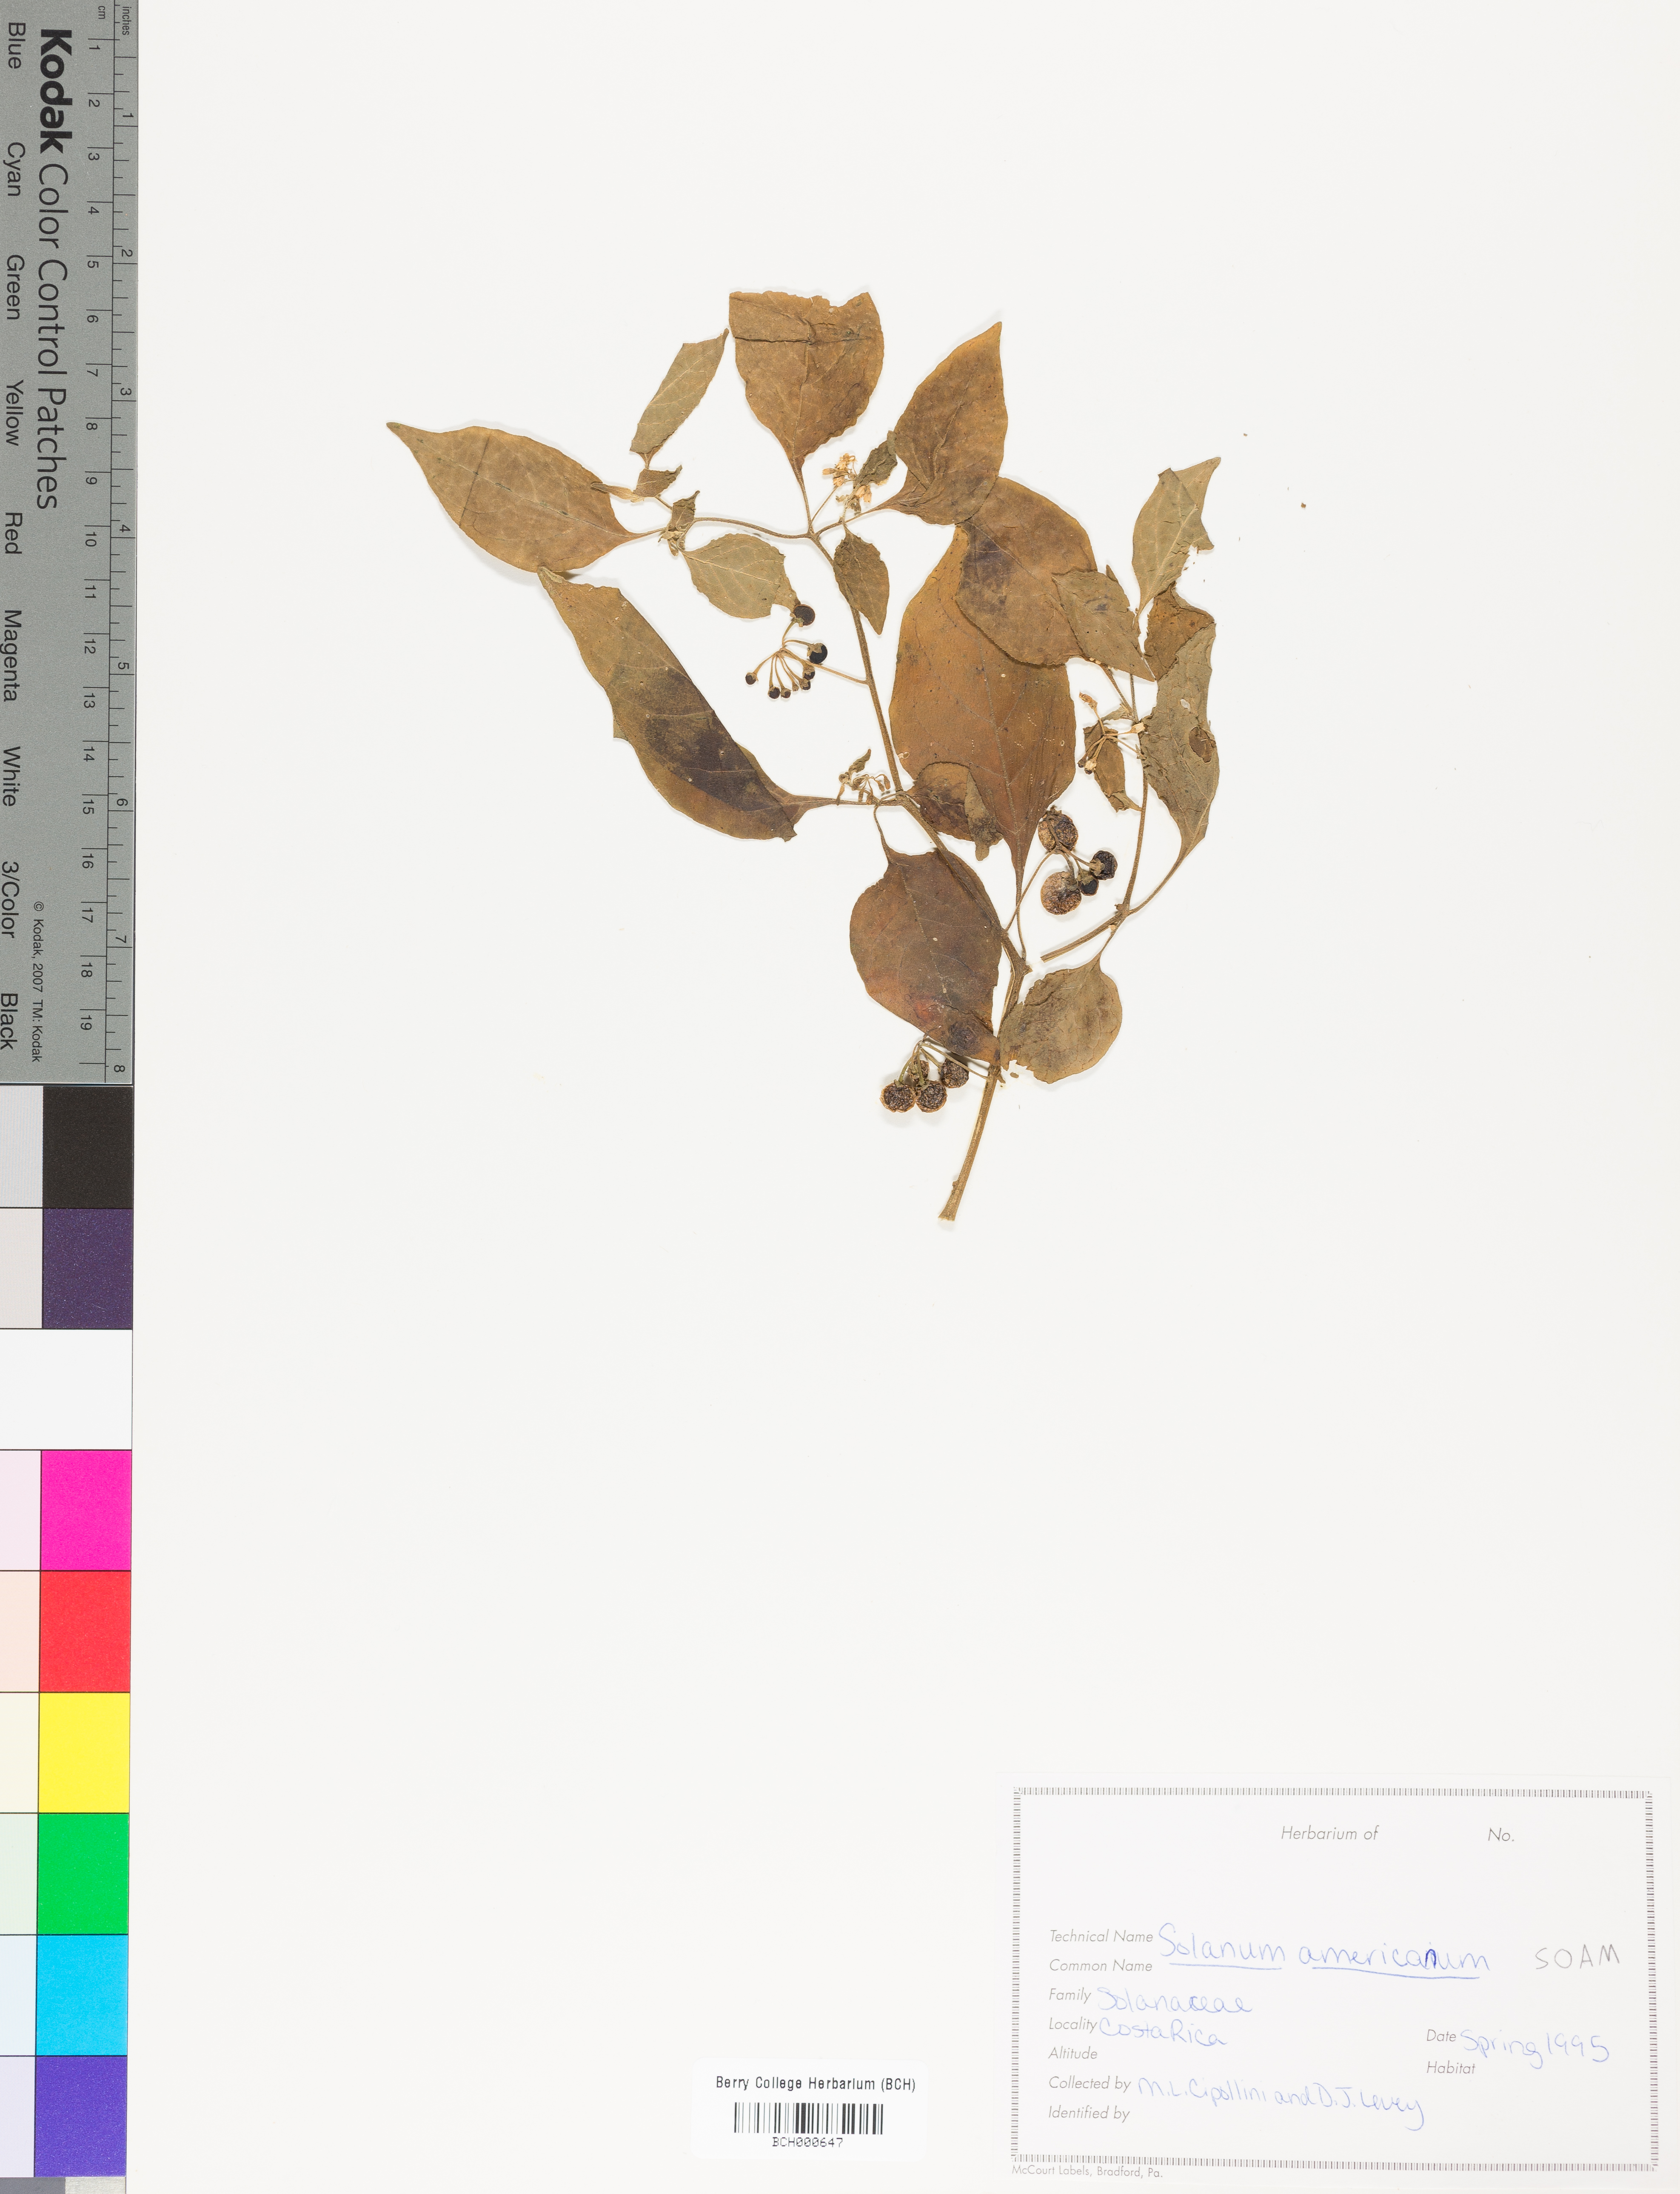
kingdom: Plantae
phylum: Tracheophyta
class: Magnoliopsida
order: Solanales
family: Solanaceae
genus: Solanum
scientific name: Solanum americanum
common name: American black nightshade
